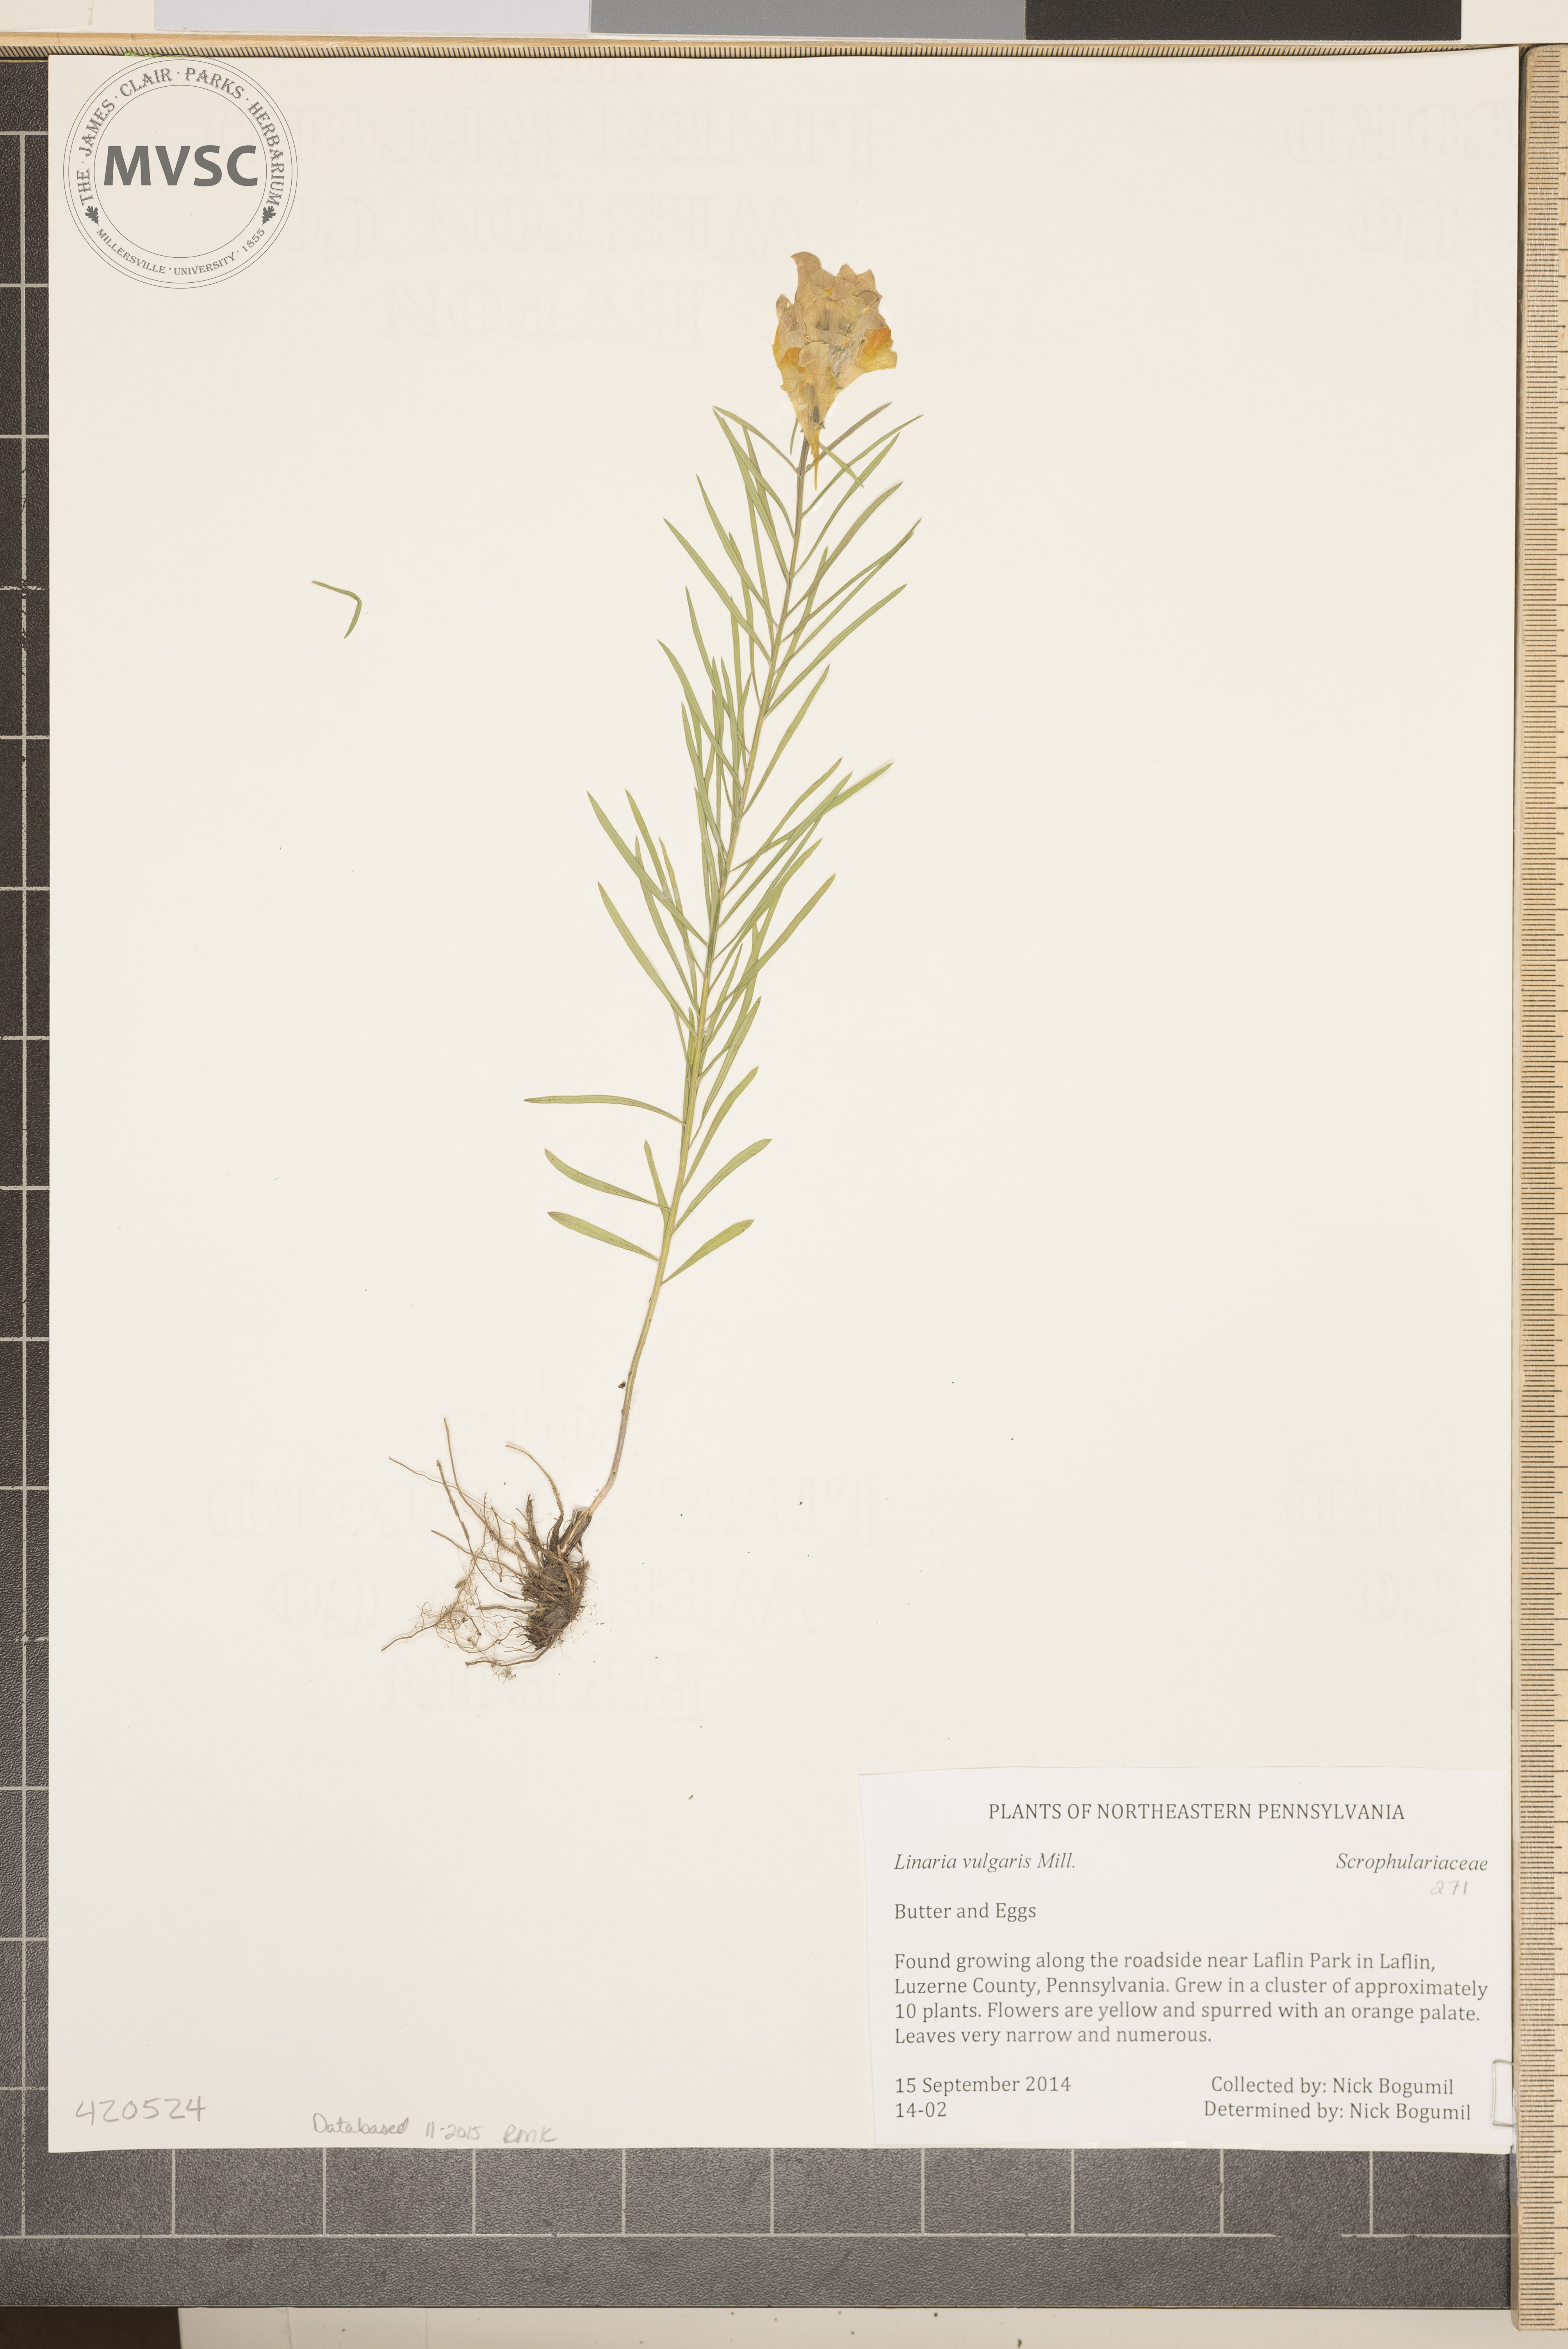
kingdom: Plantae
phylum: Tracheophyta
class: Magnoliopsida
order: Lamiales
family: Plantaginaceae
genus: Linaria
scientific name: Linaria vulgaris
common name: Butter and Eggs
